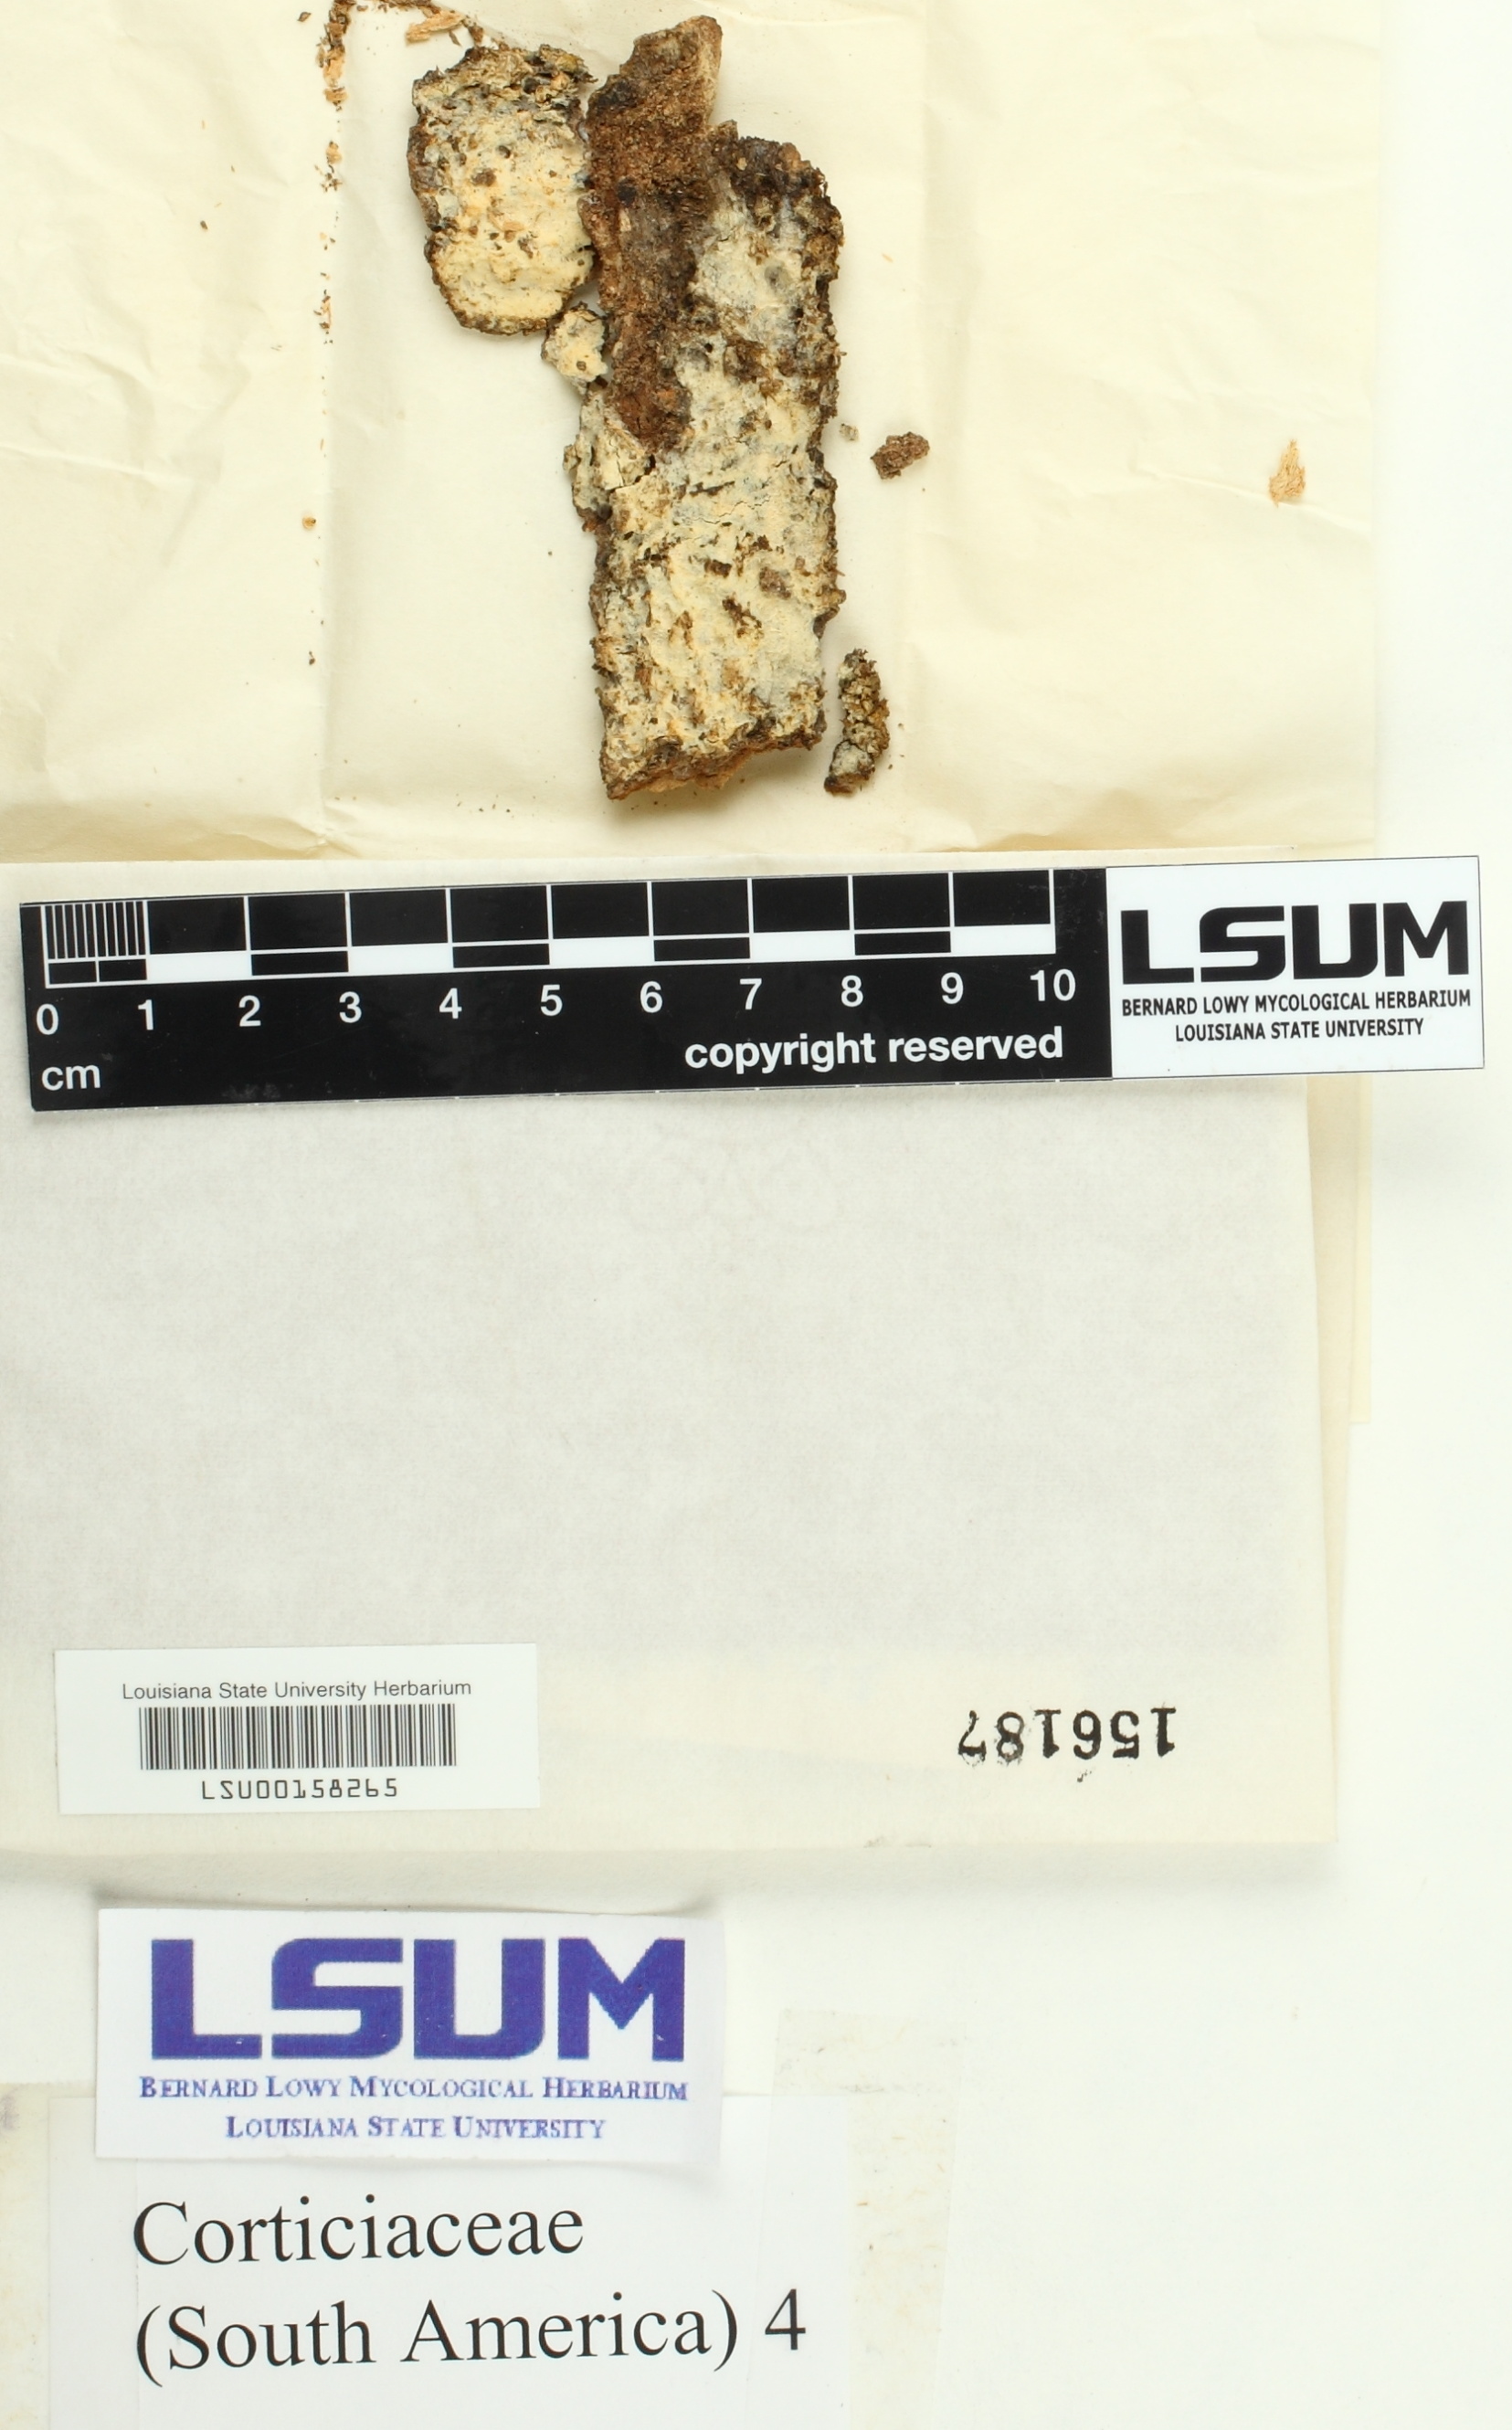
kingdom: Fungi
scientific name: Fungi
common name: Fungi
